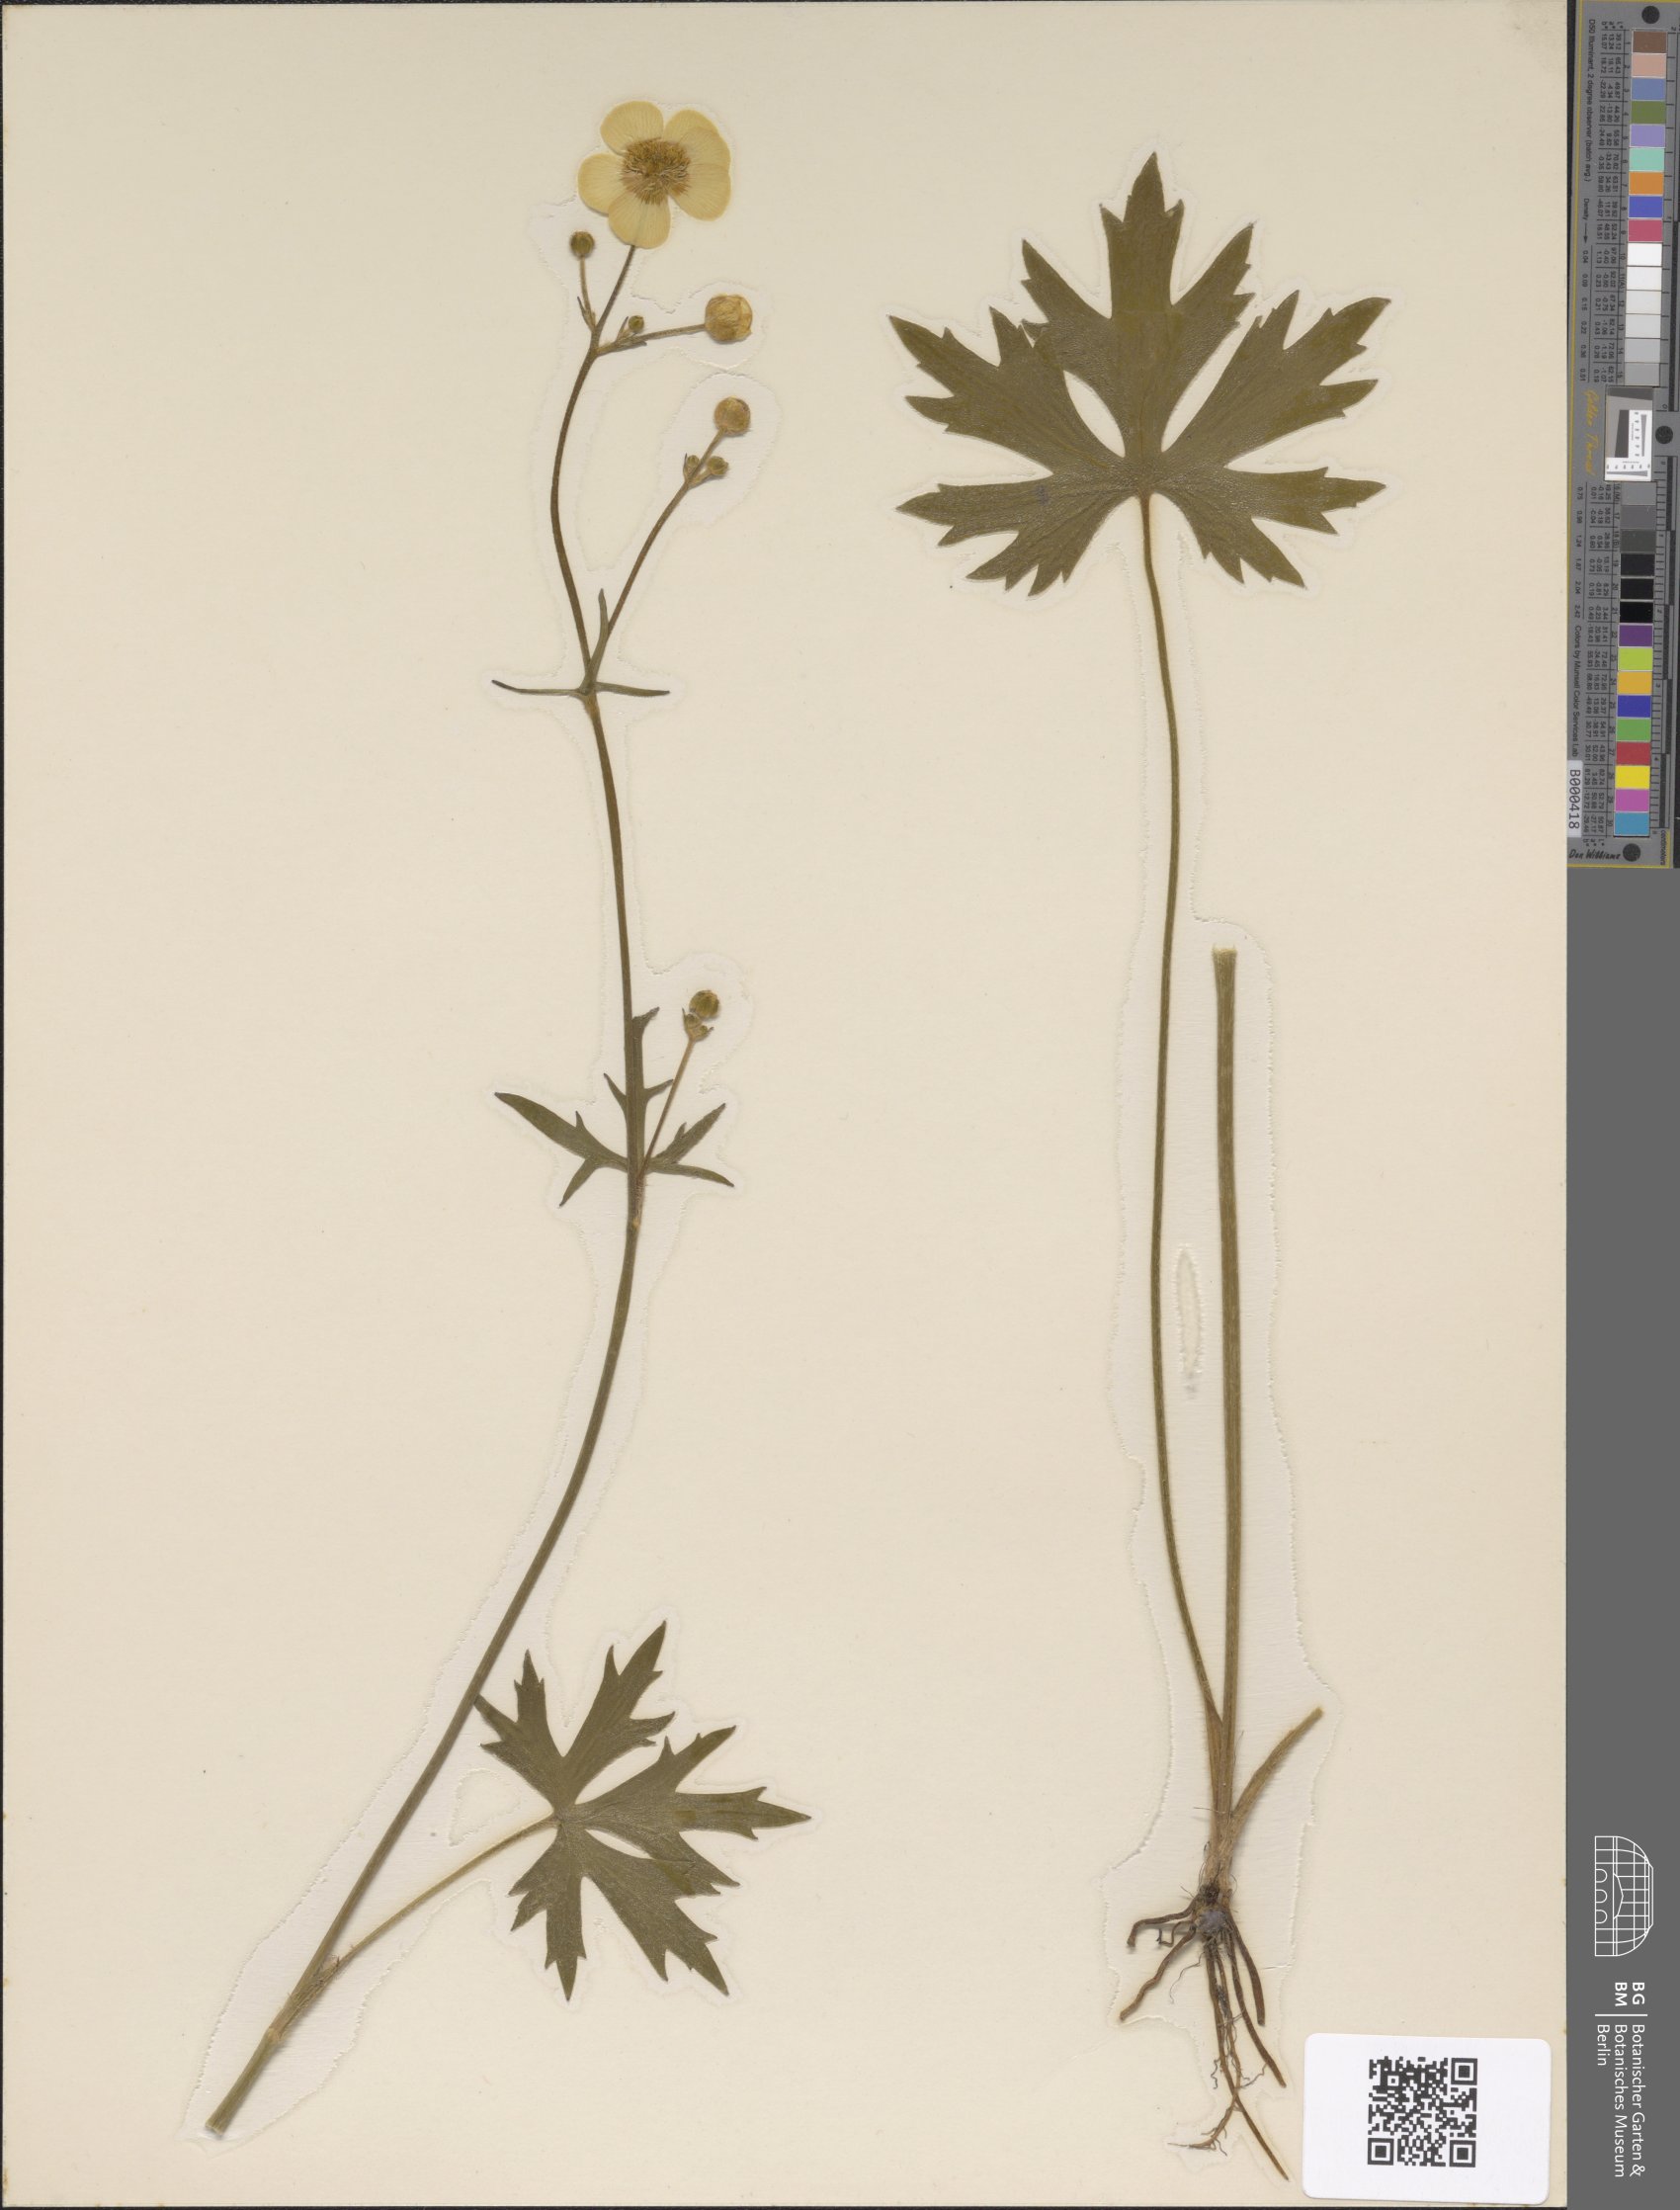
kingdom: Plantae
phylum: Tracheophyta
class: Magnoliopsida
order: Ranunculales
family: Ranunculaceae
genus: Ranunculus
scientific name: Ranunculus
